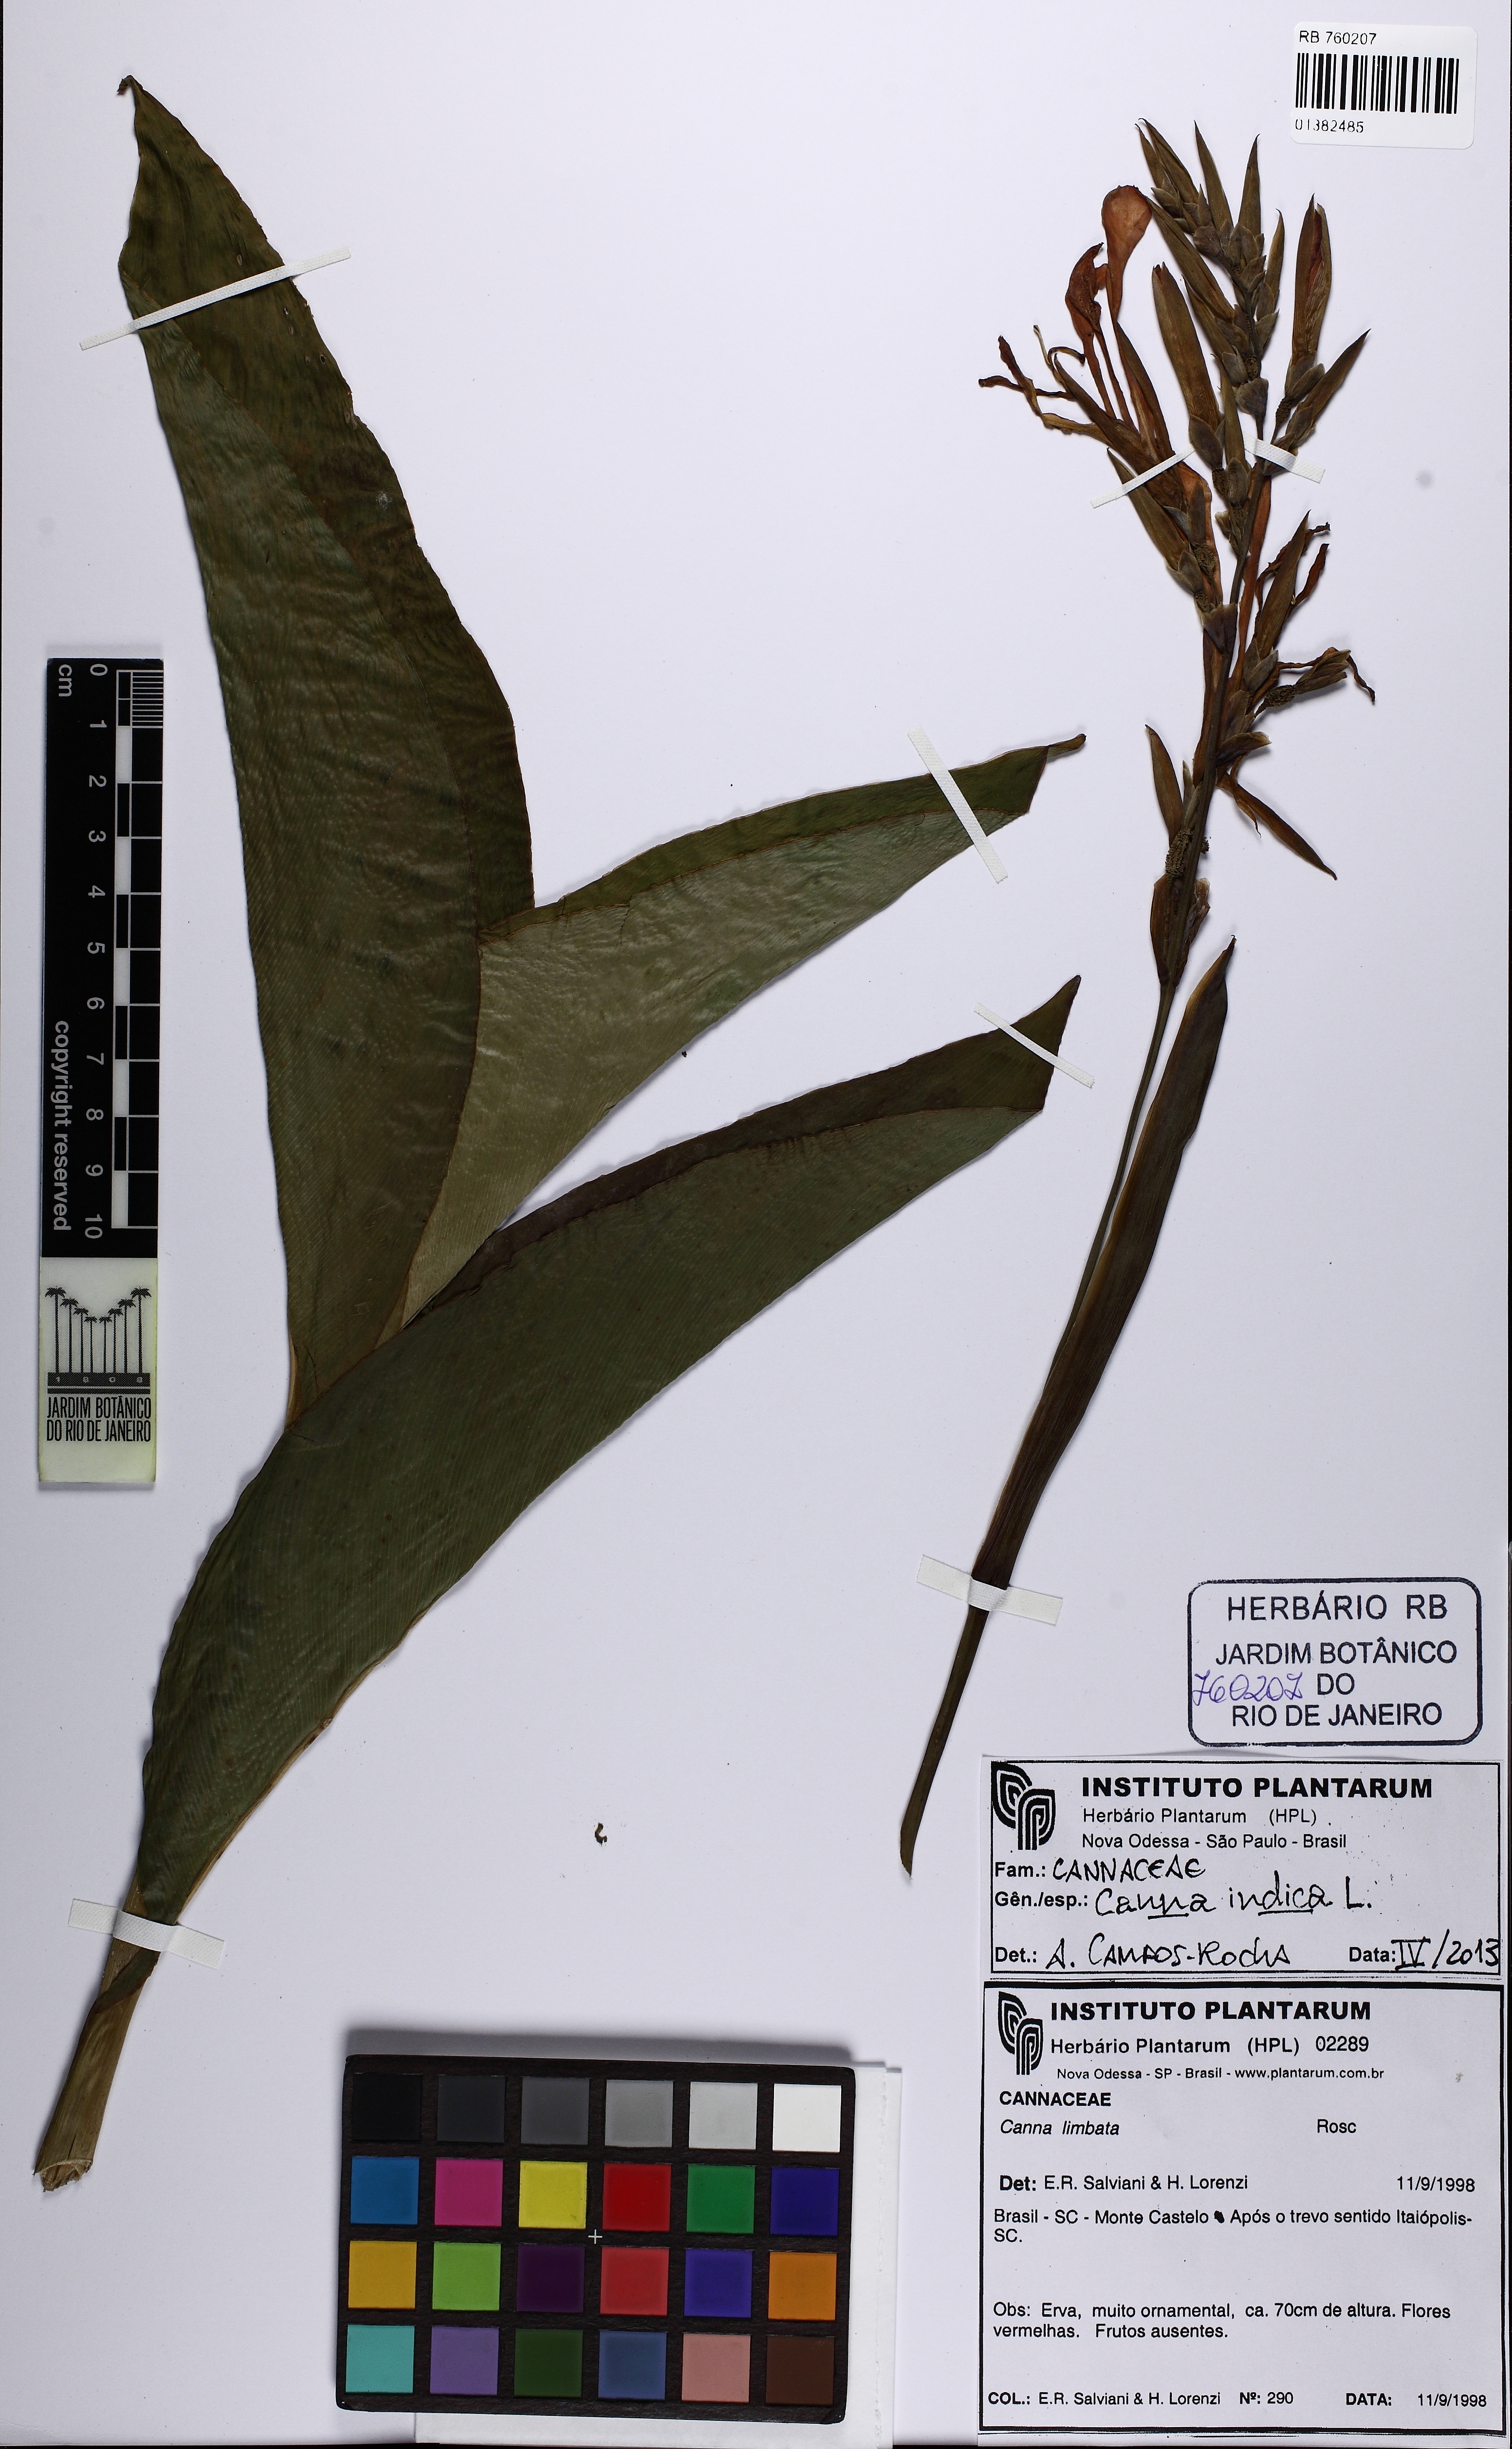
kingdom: Plantae
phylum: Tracheophyta
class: Liliopsida
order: Zingiberales
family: Cannaceae
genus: Canna
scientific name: Canna indica
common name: Indian shot
